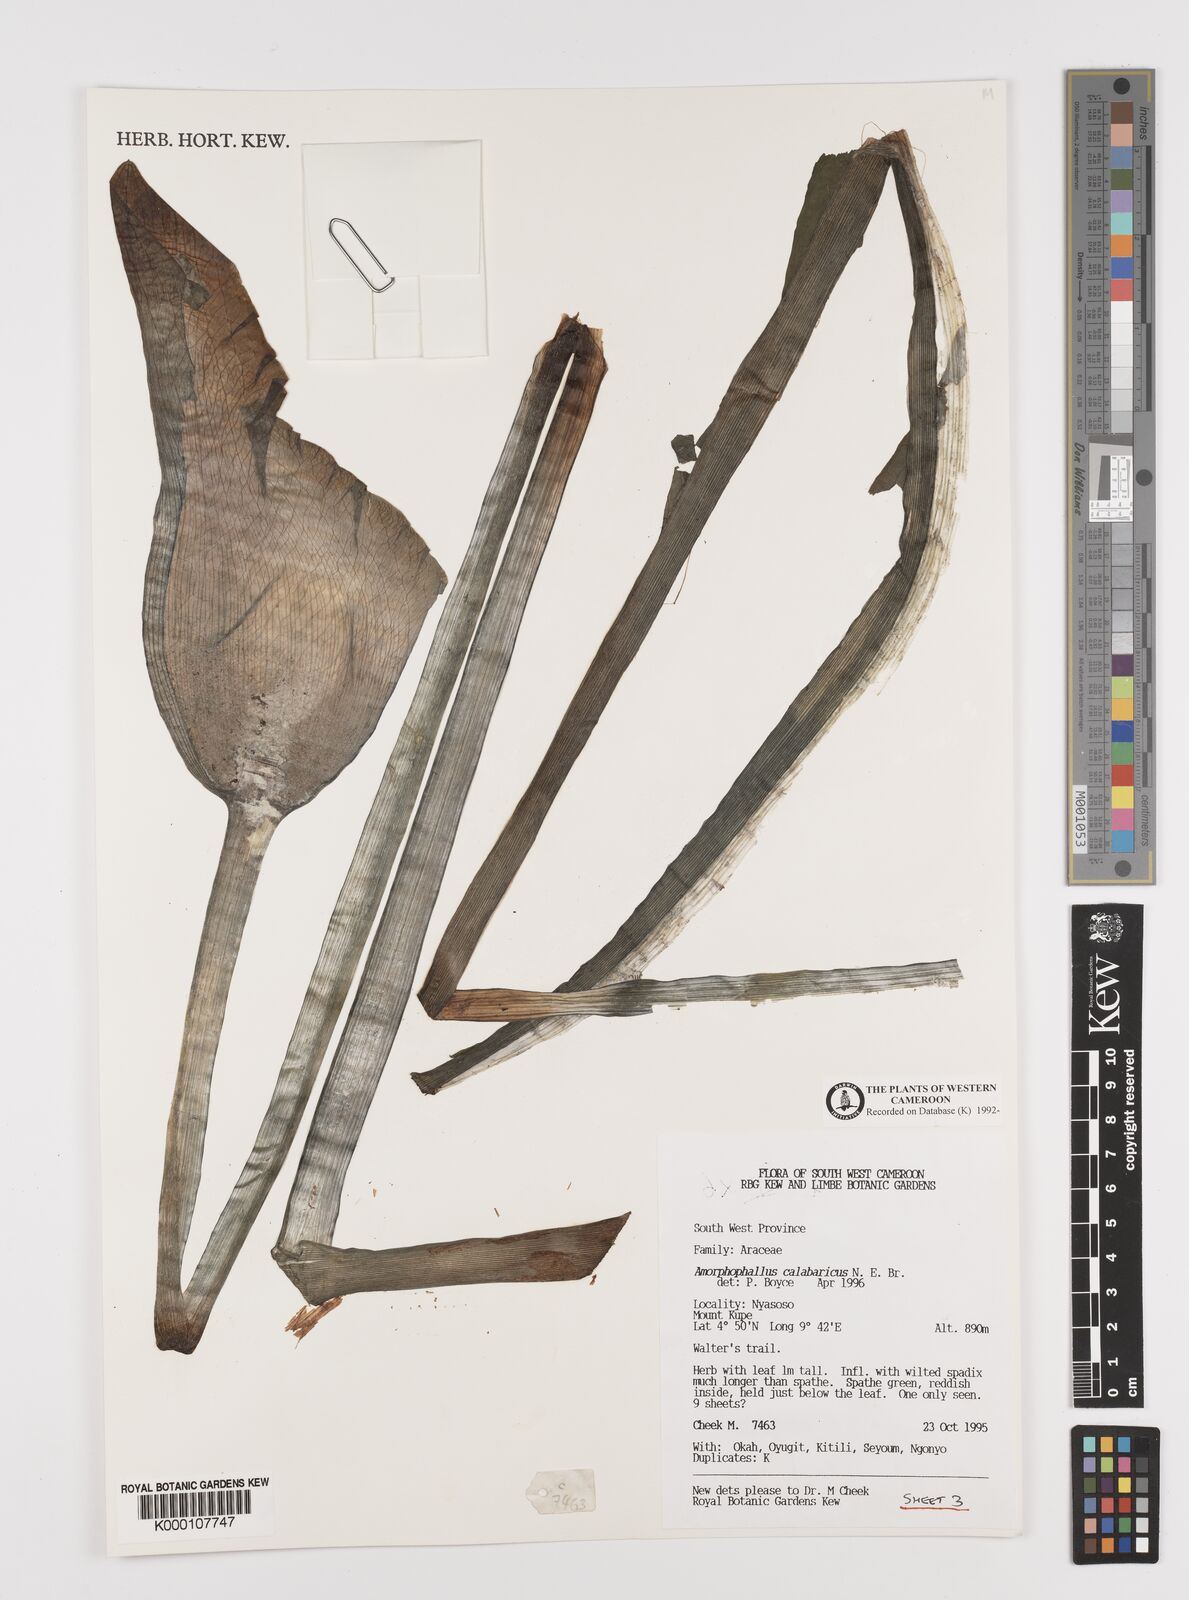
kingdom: Plantae
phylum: Tracheophyta
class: Liliopsida
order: Alismatales
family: Araceae
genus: Amorphophallus
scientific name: Amorphophallus calabaricus
